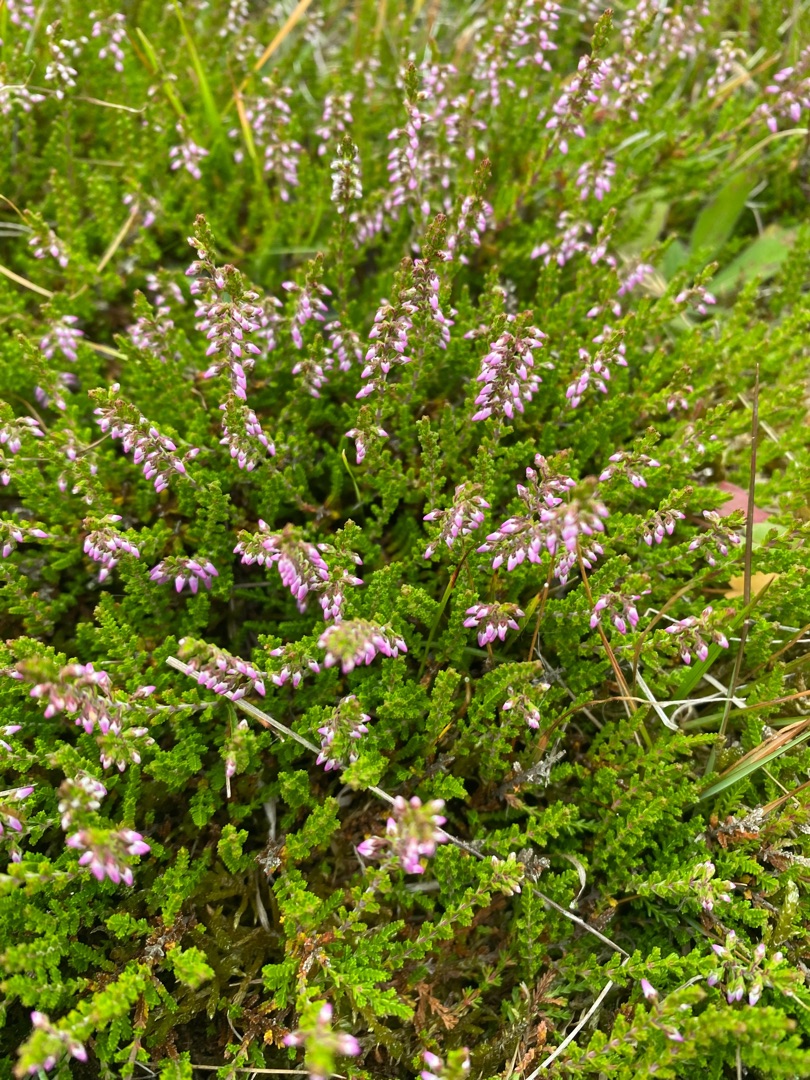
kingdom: Plantae
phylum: Tracheophyta
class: Magnoliopsida
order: Ericales
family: Ericaceae
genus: Calluna
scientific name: Calluna vulgaris
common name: Hedelyng
